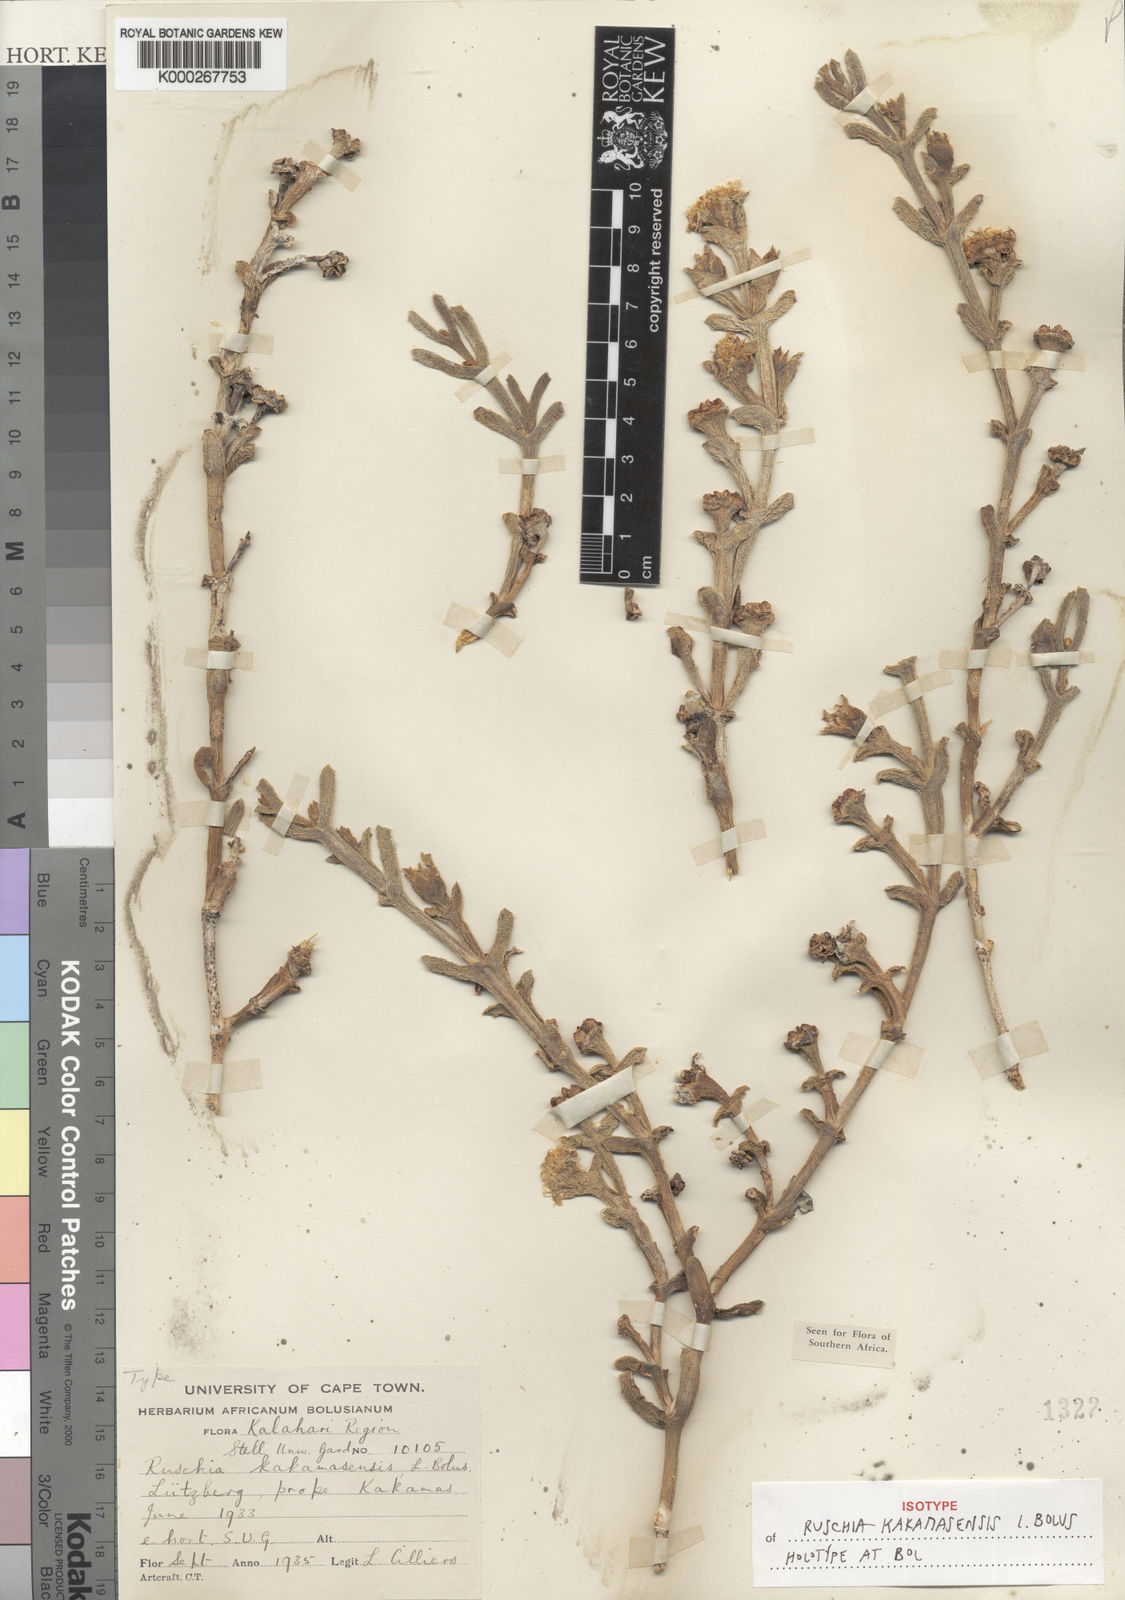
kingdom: Plantae
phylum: Tracheophyta
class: Magnoliopsida
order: Caryophyllales
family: Aizoaceae
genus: Ruschia
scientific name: Ruschia barnardii
